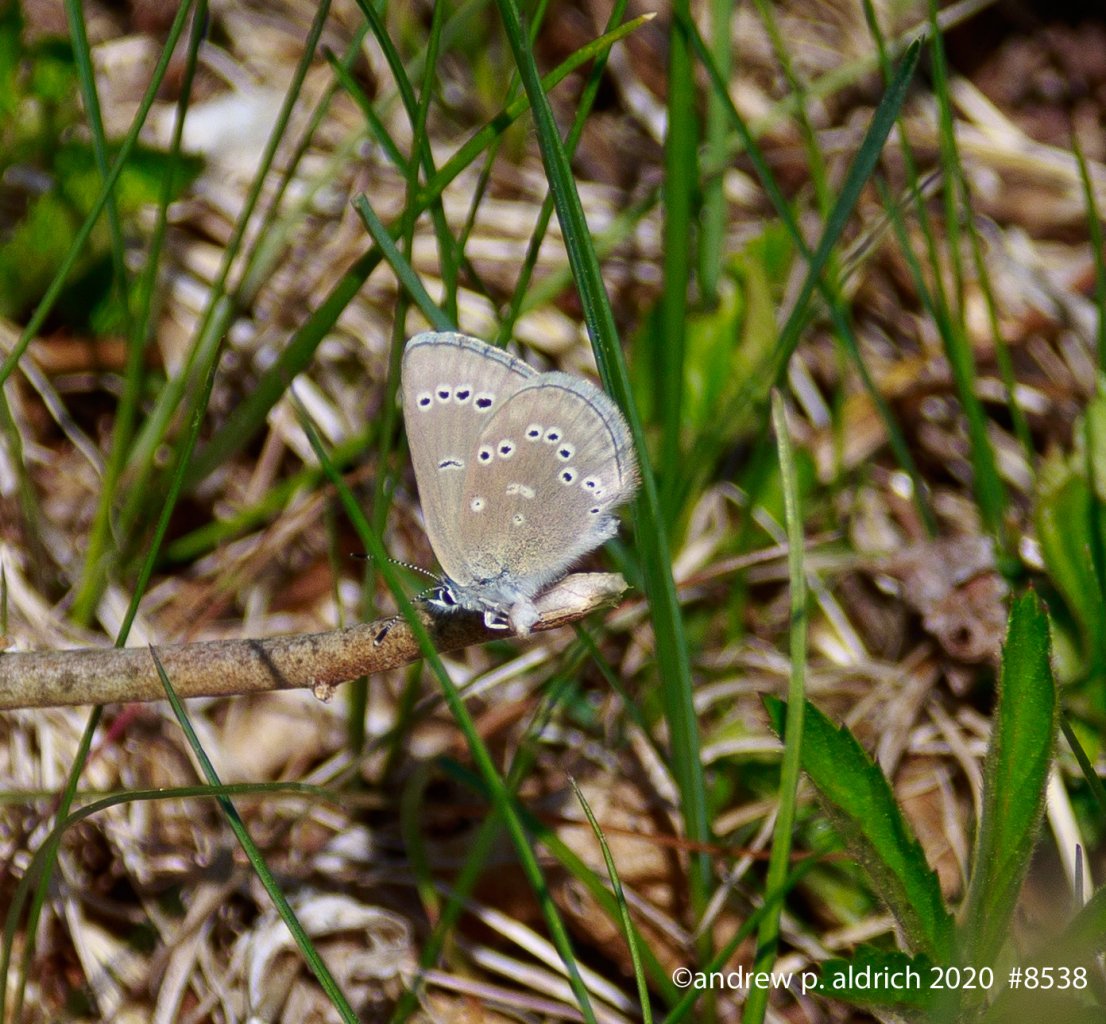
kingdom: Animalia
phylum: Arthropoda
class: Insecta
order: Lepidoptera
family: Lycaenidae
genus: Glaucopsyche
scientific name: Glaucopsyche lygdamus
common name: Silvery Blue
